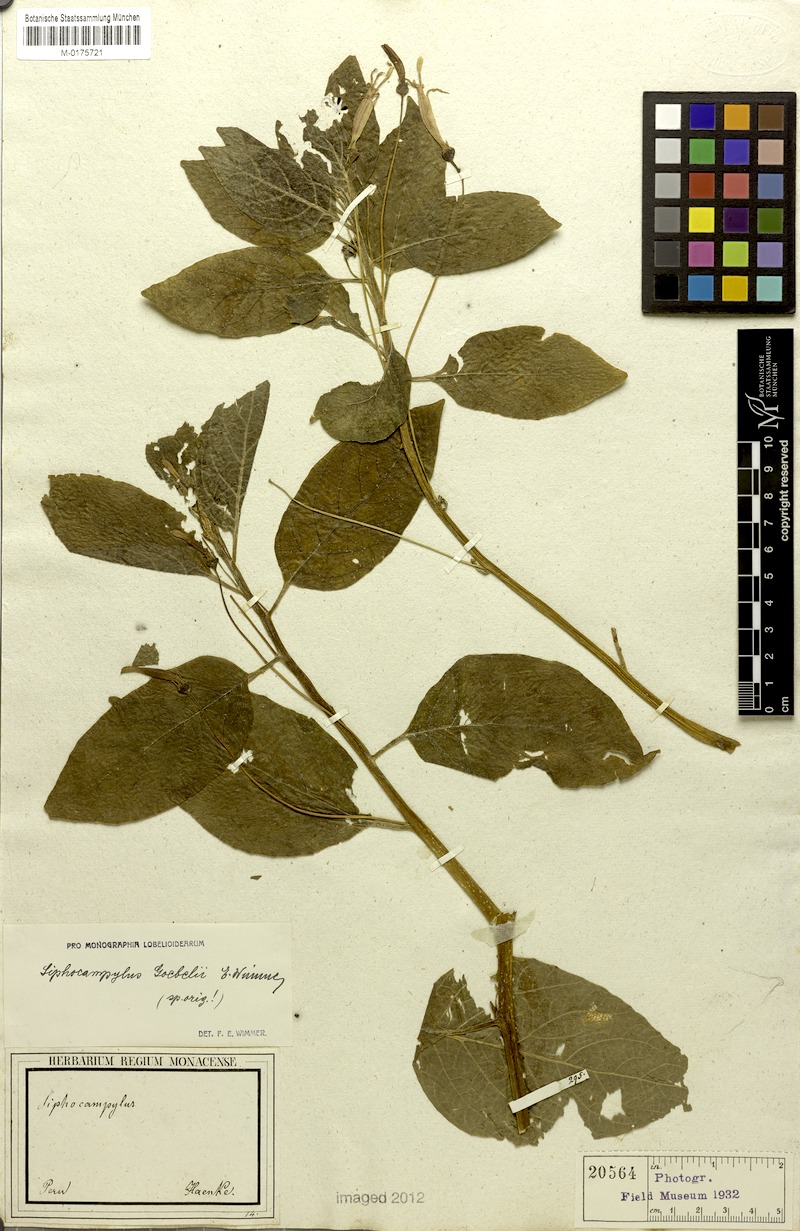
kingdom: Plantae
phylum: Tracheophyta
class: Magnoliopsida
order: Asterales
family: Campanulaceae
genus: Siphocampylus
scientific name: Siphocampylus goebelii
